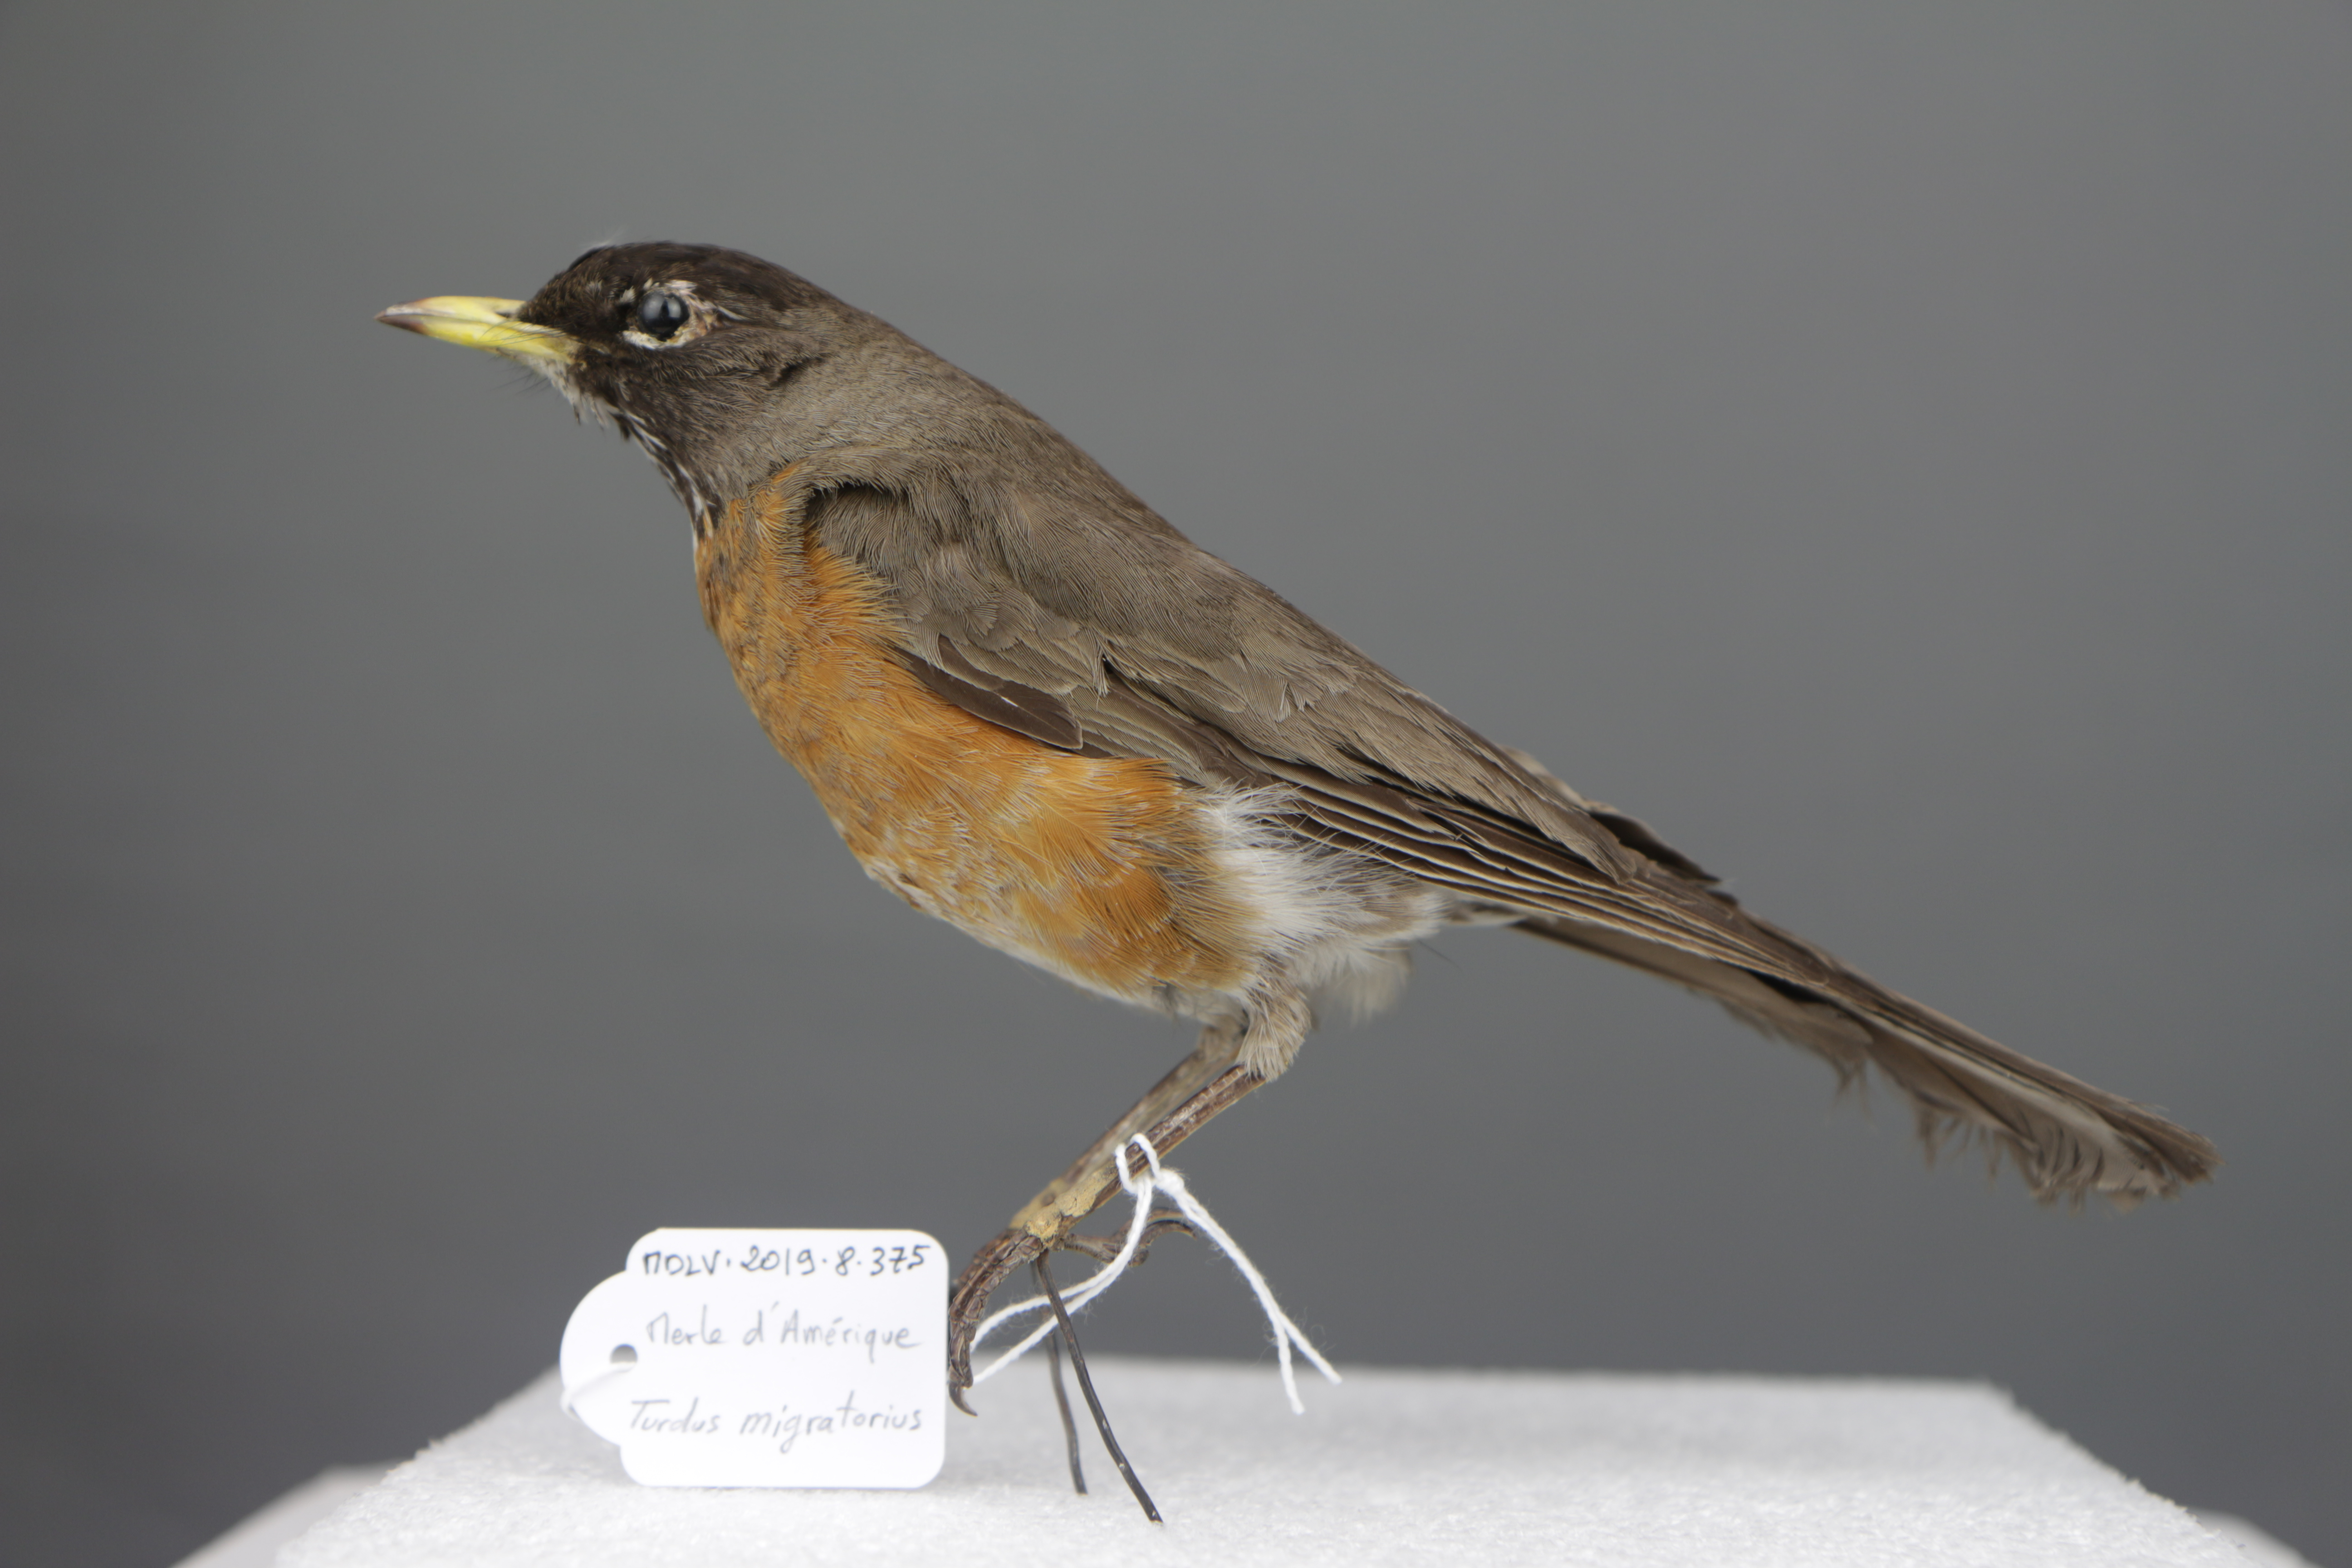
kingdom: Animalia
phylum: Chordata
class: Aves
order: Passeriformes
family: Turdidae
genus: Turdus
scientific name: Turdus migratorius
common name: American robin
